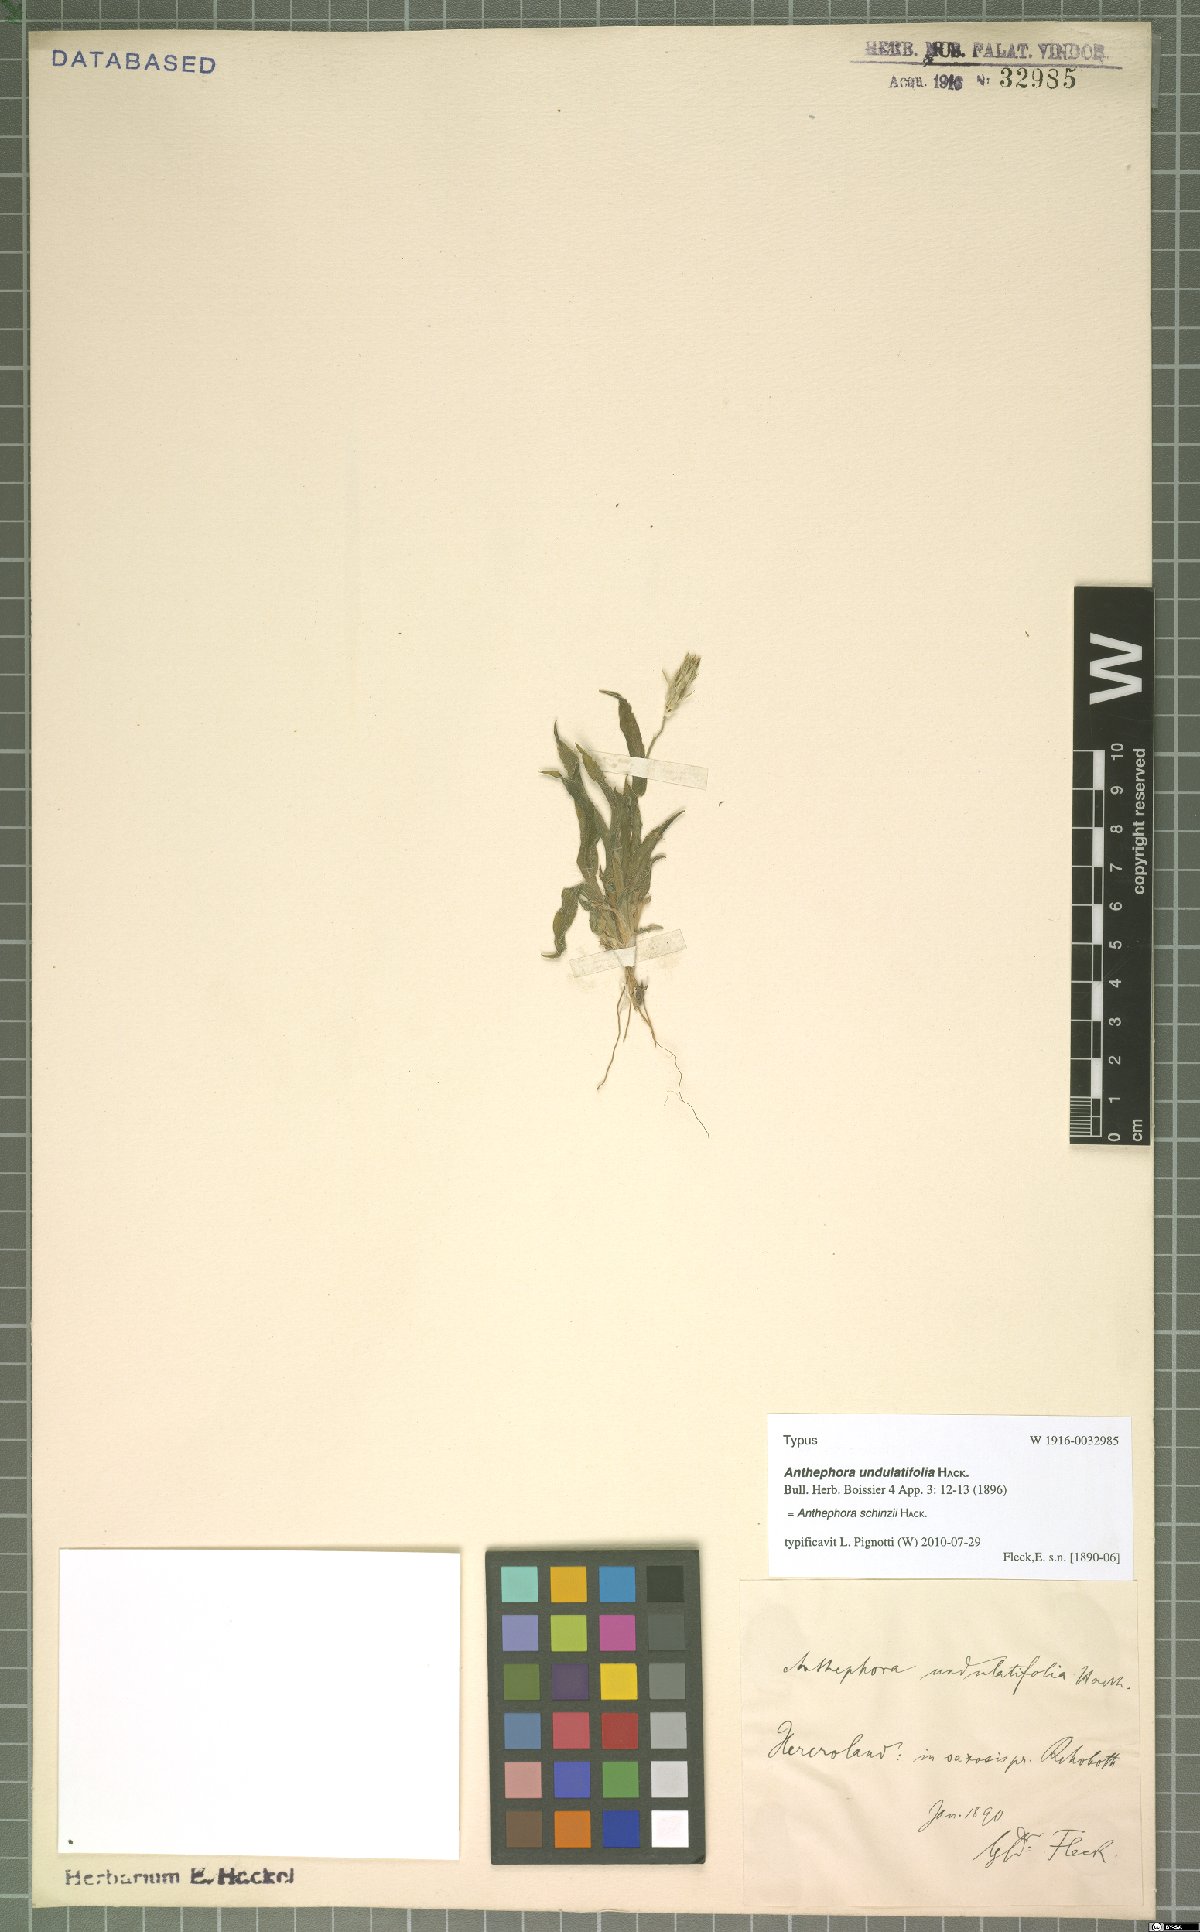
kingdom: Plantae
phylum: Tracheophyta
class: Liliopsida
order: Poales
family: Poaceae
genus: Anthephora
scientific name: Anthephora schinzii
